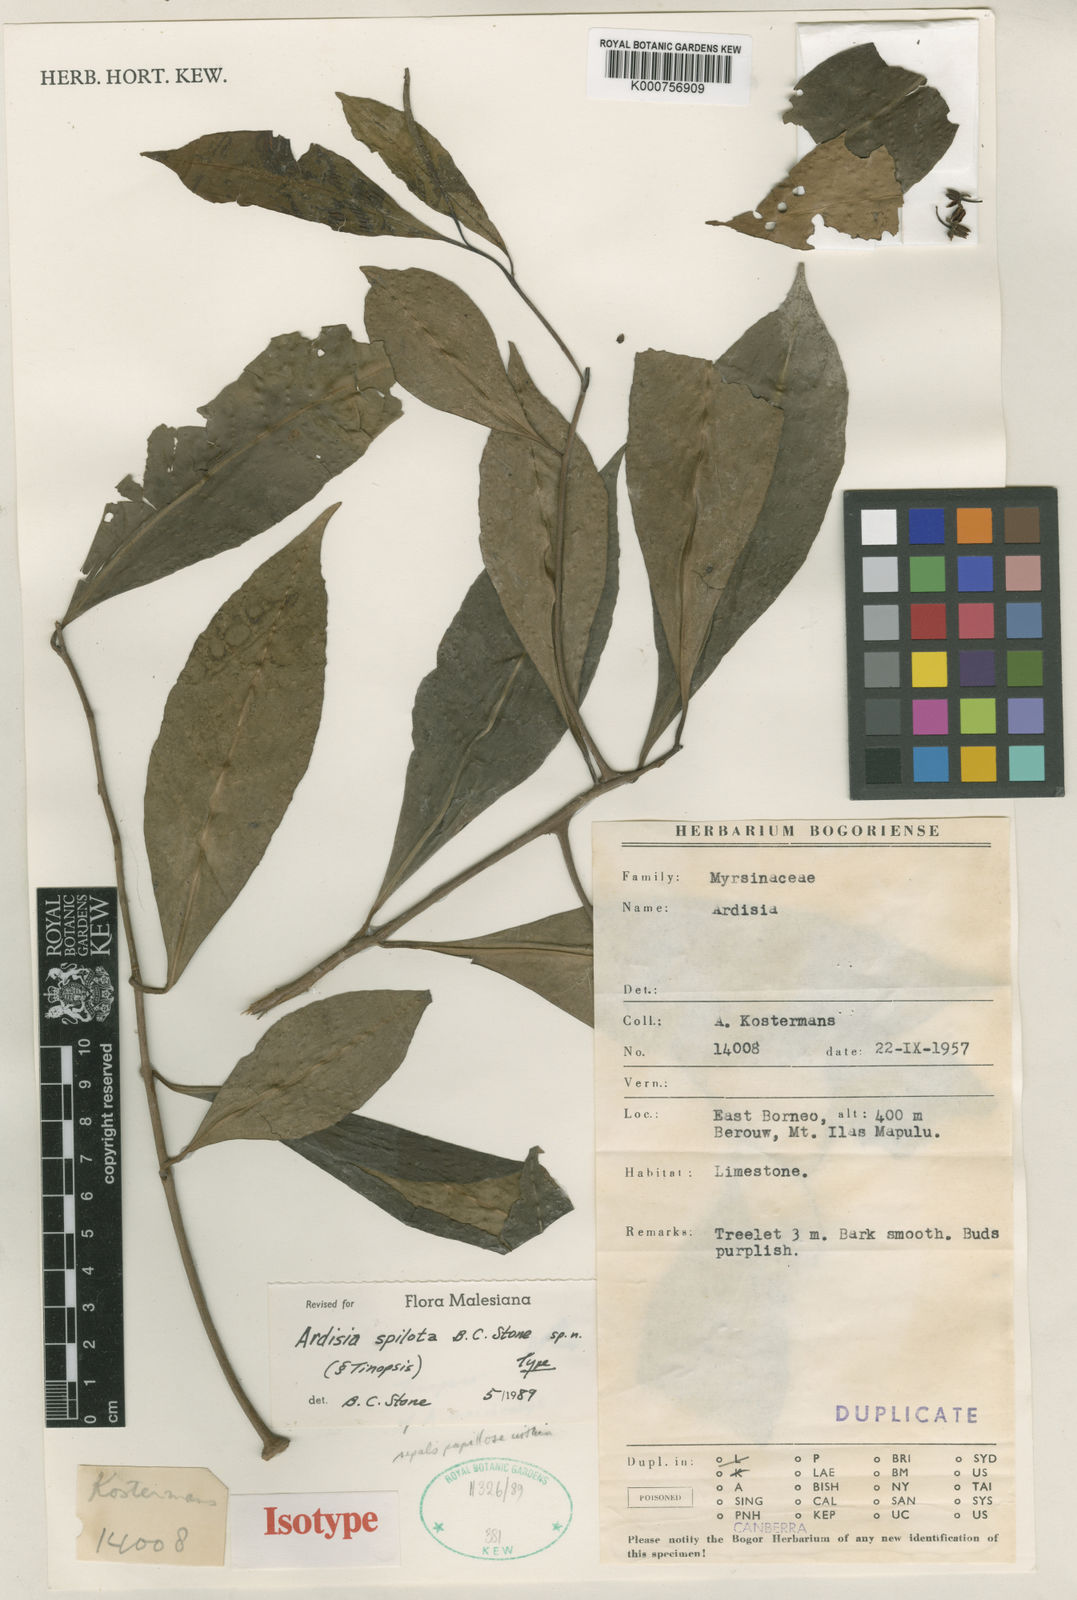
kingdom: Plantae
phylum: Tracheophyta
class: Magnoliopsida
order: Ericales
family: Primulaceae
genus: Ardisia
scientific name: Ardisia
